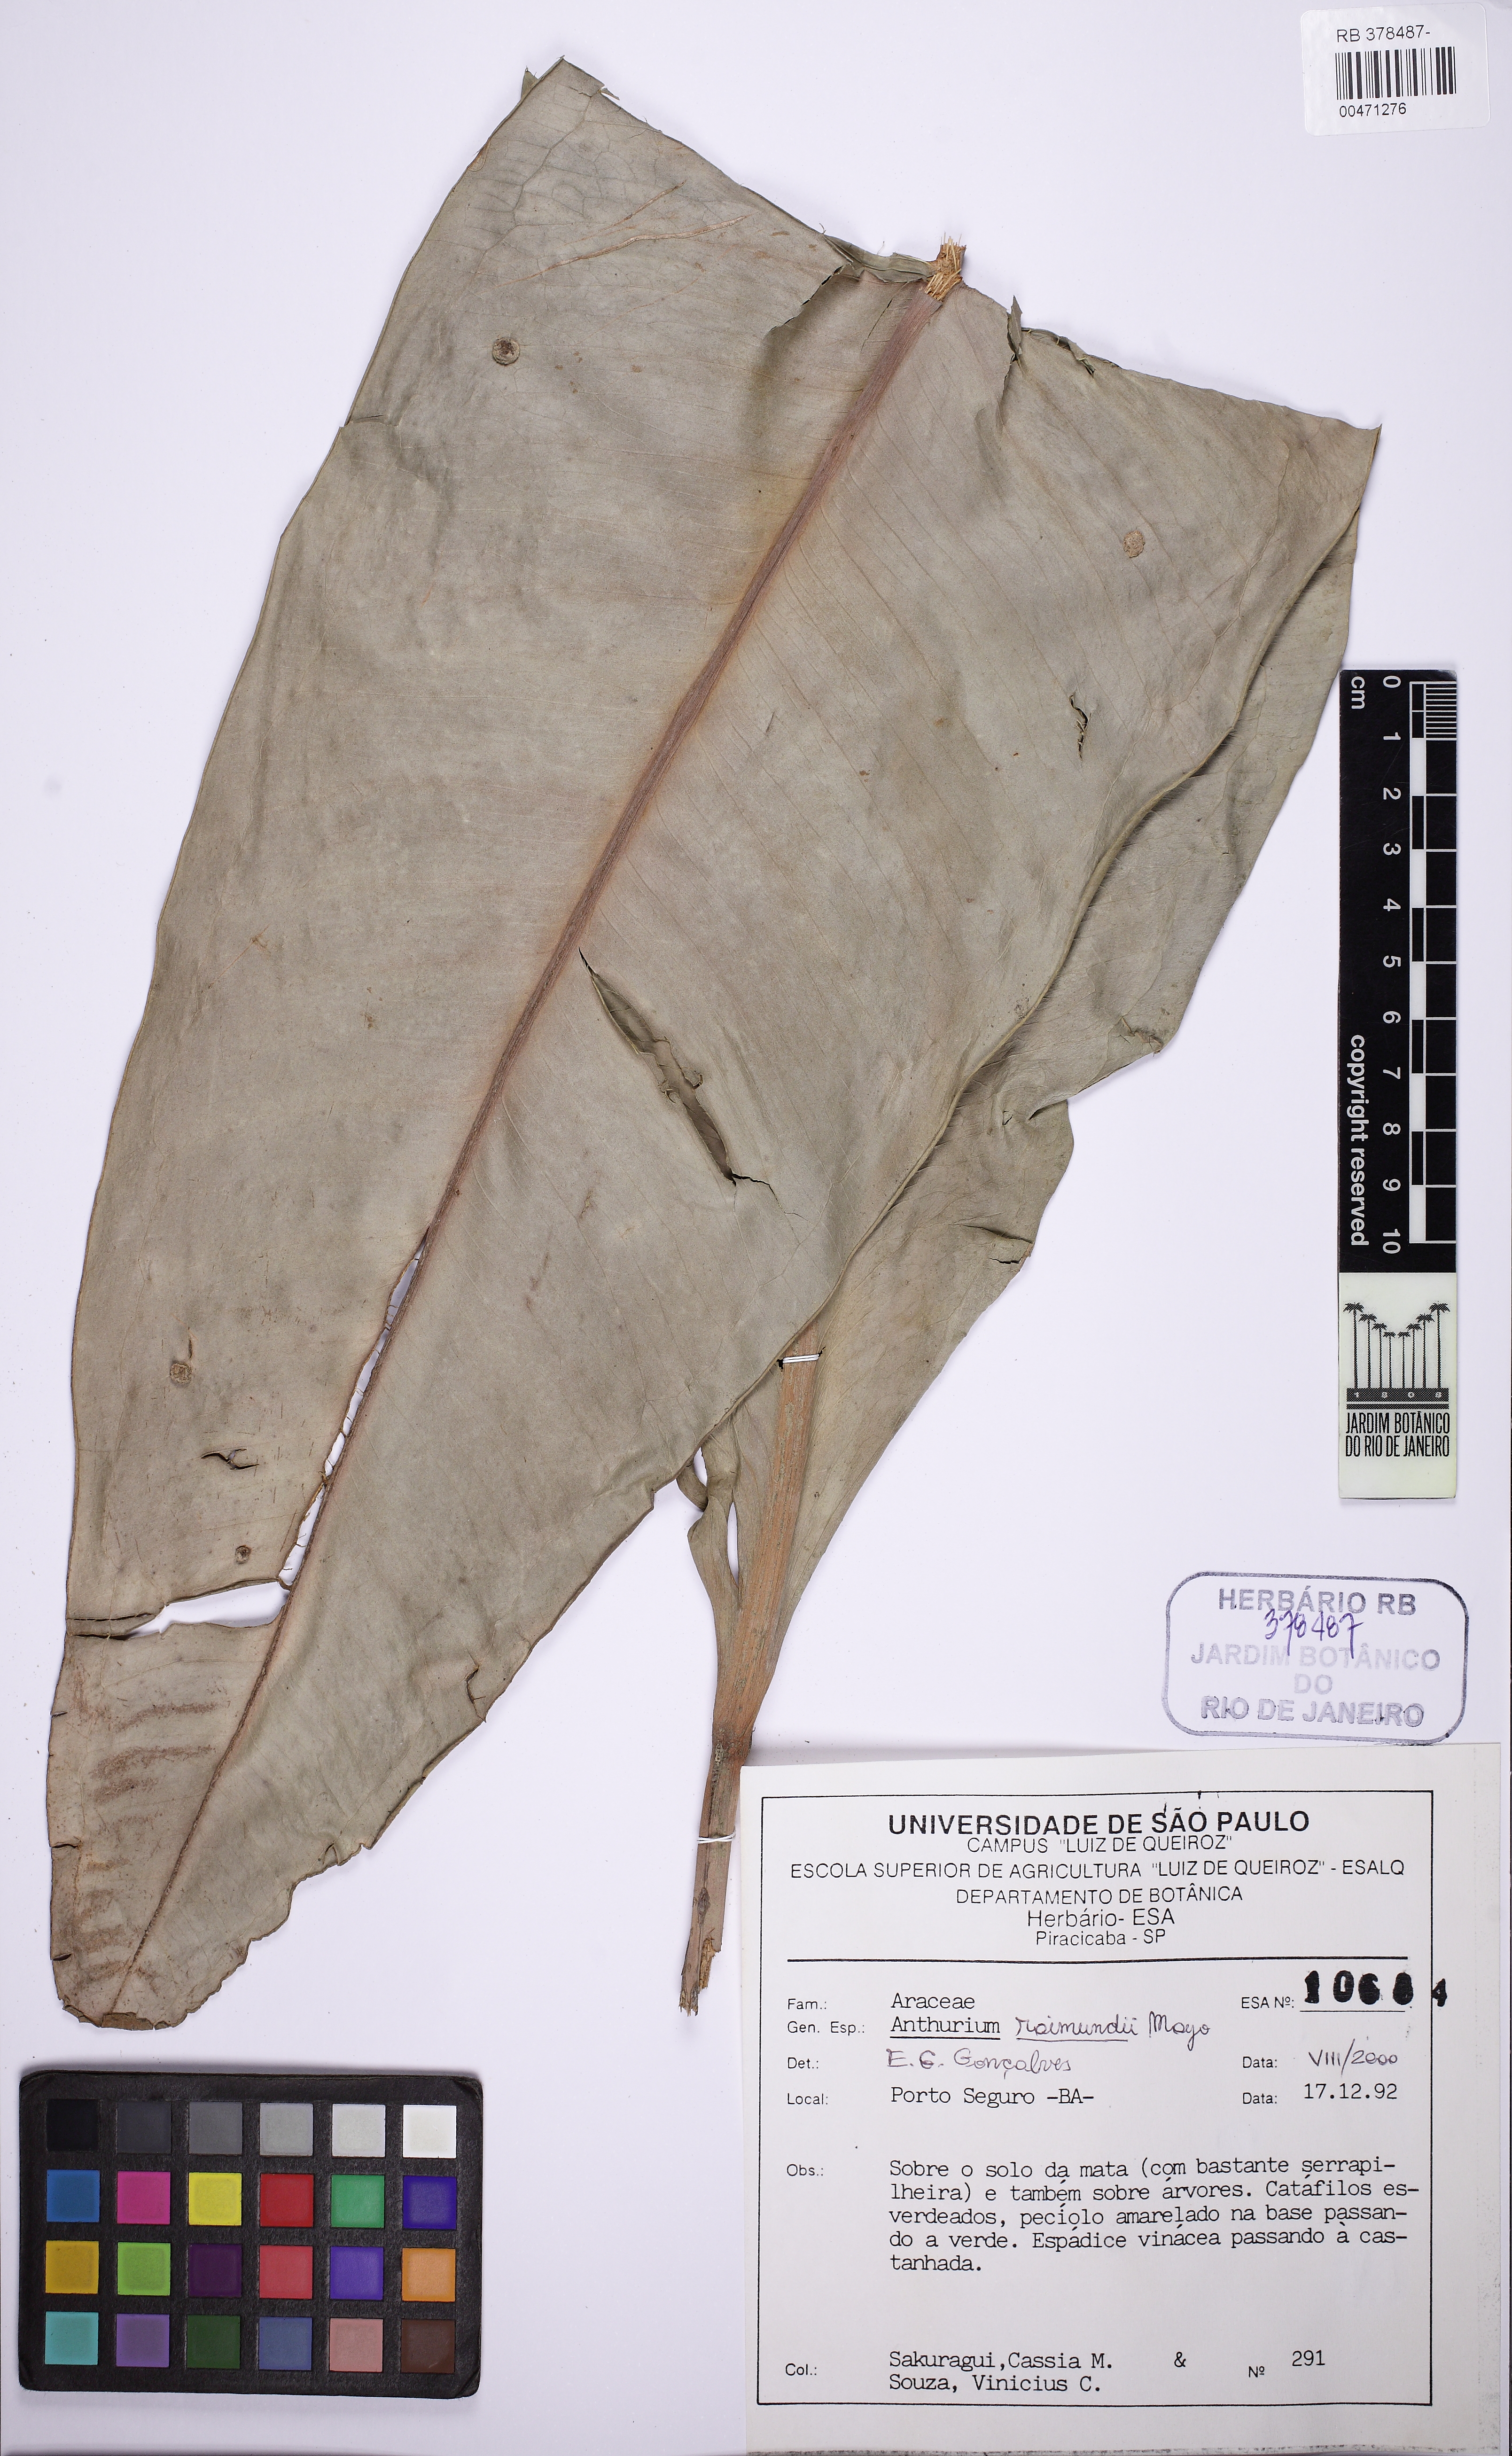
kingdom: Plantae
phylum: Tracheophyta
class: Liliopsida
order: Alismatales
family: Araceae
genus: Anthurium
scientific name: Anthurium raimundii
